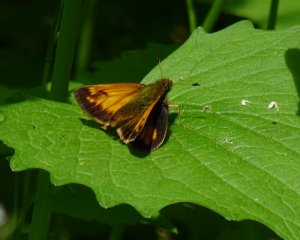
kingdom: Animalia
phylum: Arthropoda
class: Insecta
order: Lepidoptera
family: Hesperiidae
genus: Lon
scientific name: Lon hobomok
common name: Hobomok Skipper
